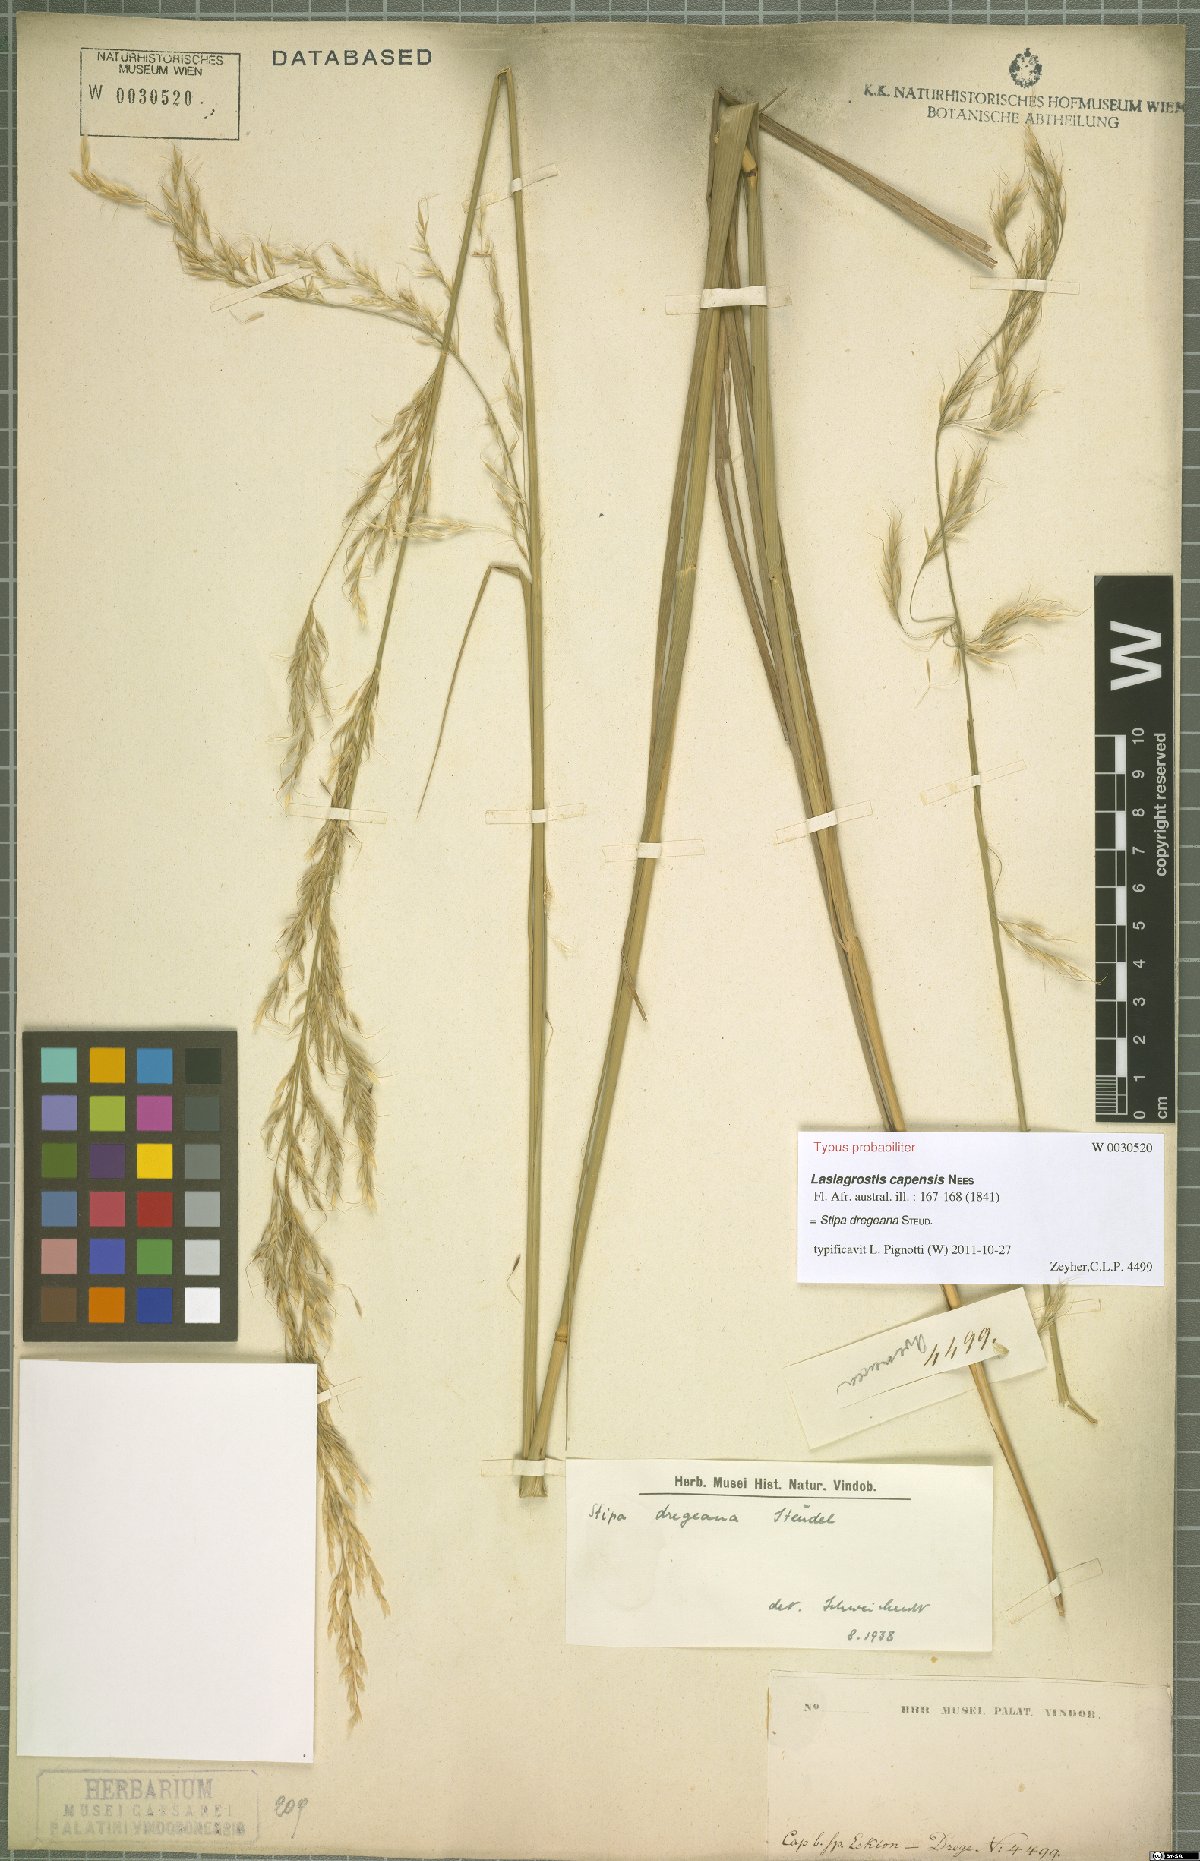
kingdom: Plantae
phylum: Tracheophyta
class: Liliopsida
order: Poales
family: Poaceae
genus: Stipa
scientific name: Stipa dregeana
